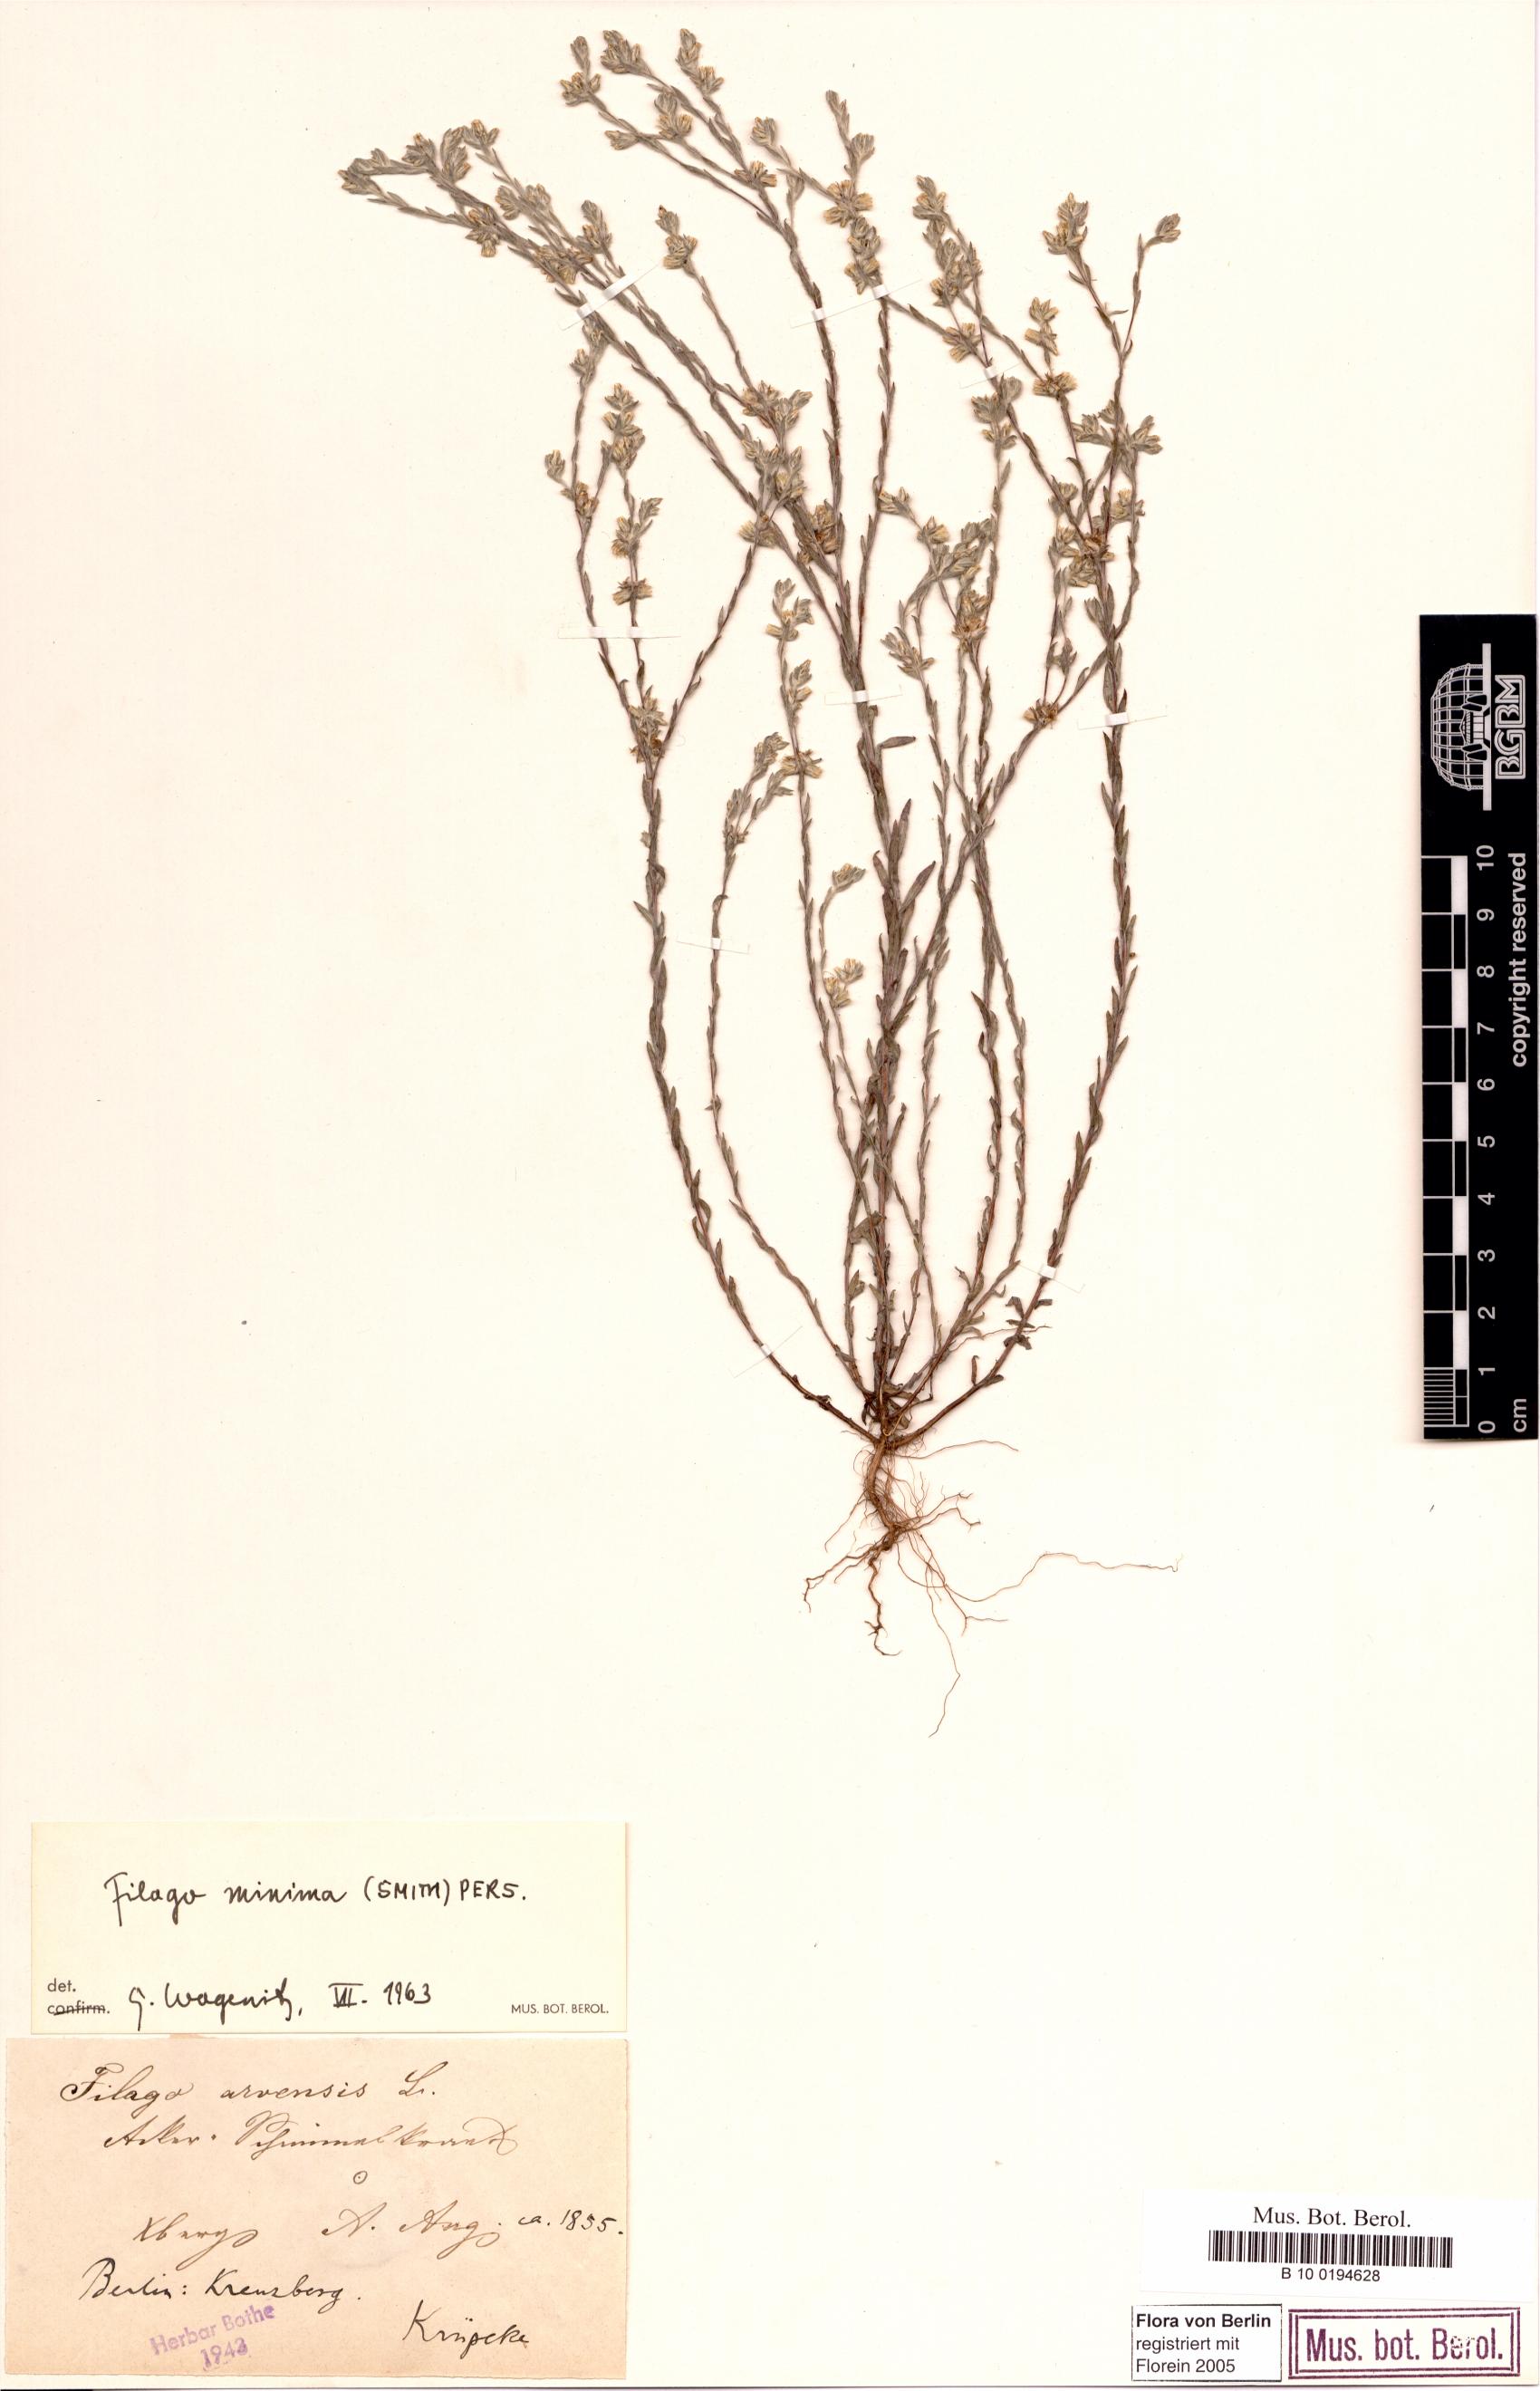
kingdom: Plantae
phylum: Tracheophyta
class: Magnoliopsida
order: Asterales
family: Asteraceae
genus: Logfia
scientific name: Logfia minima
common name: Little cottonrose
